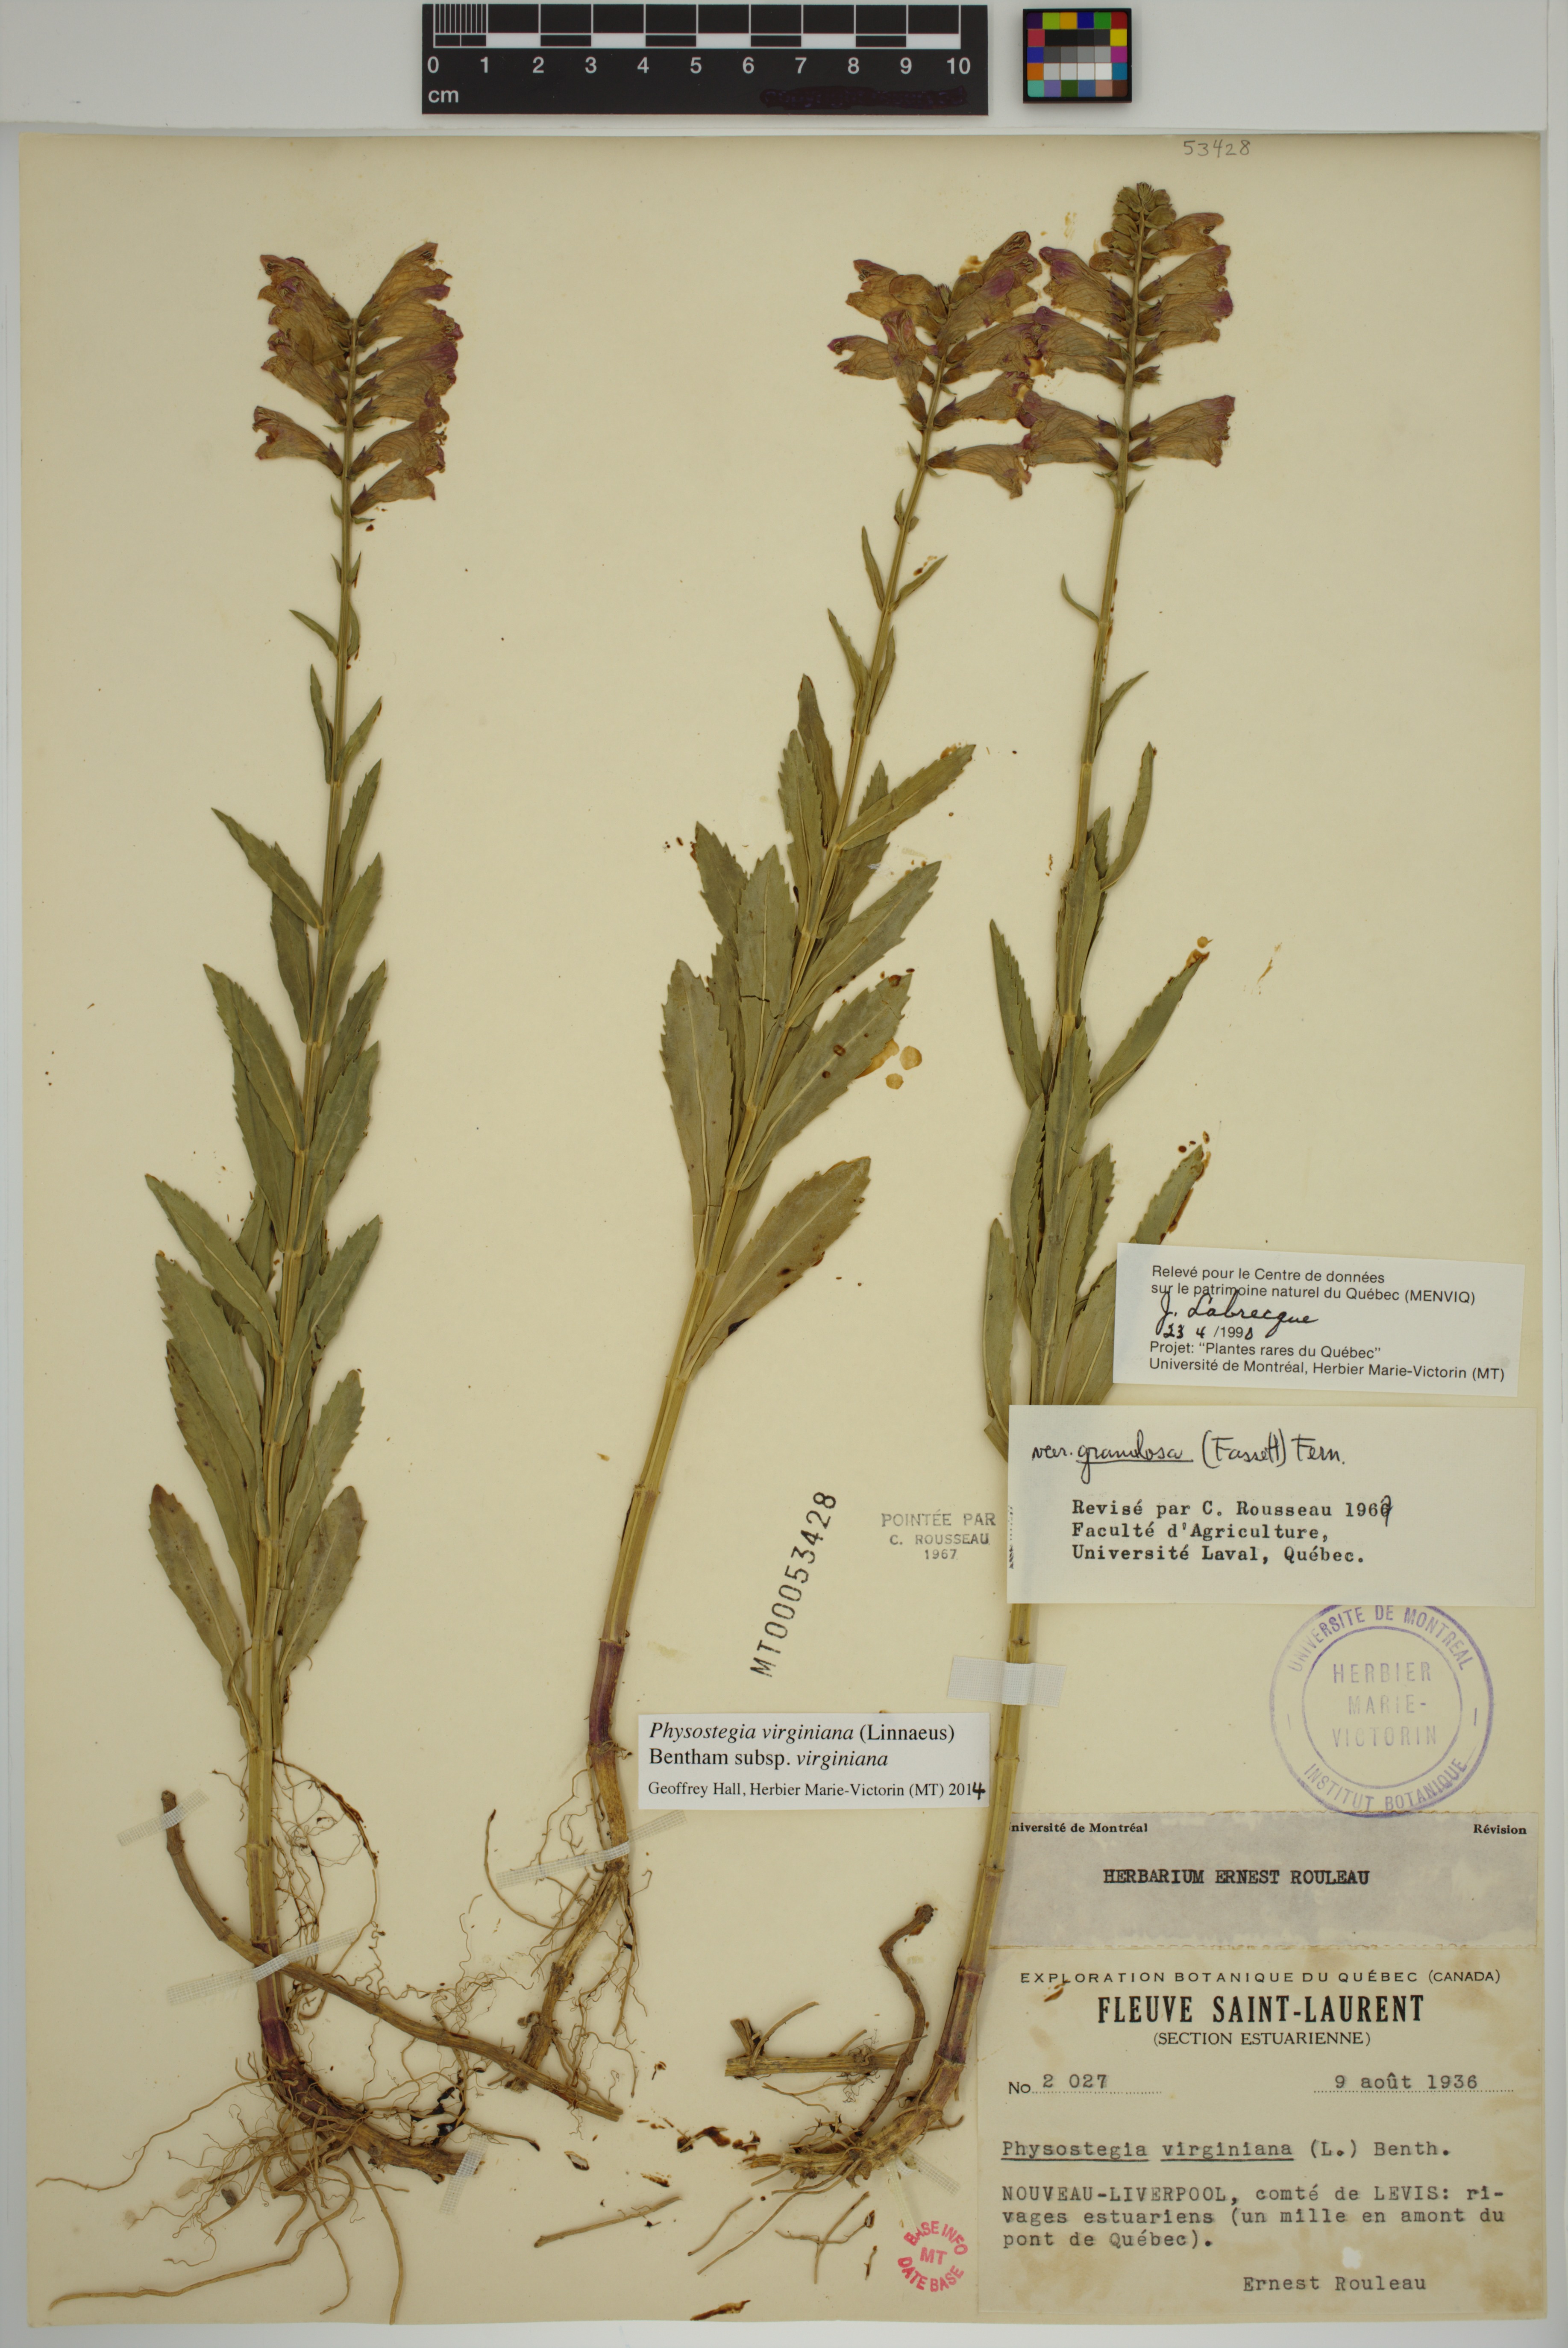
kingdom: Plantae
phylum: Tracheophyta
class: Magnoliopsida
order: Lamiales
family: Lamiaceae
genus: Physostegia
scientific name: Physostegia virginiana
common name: Obedient-plant
